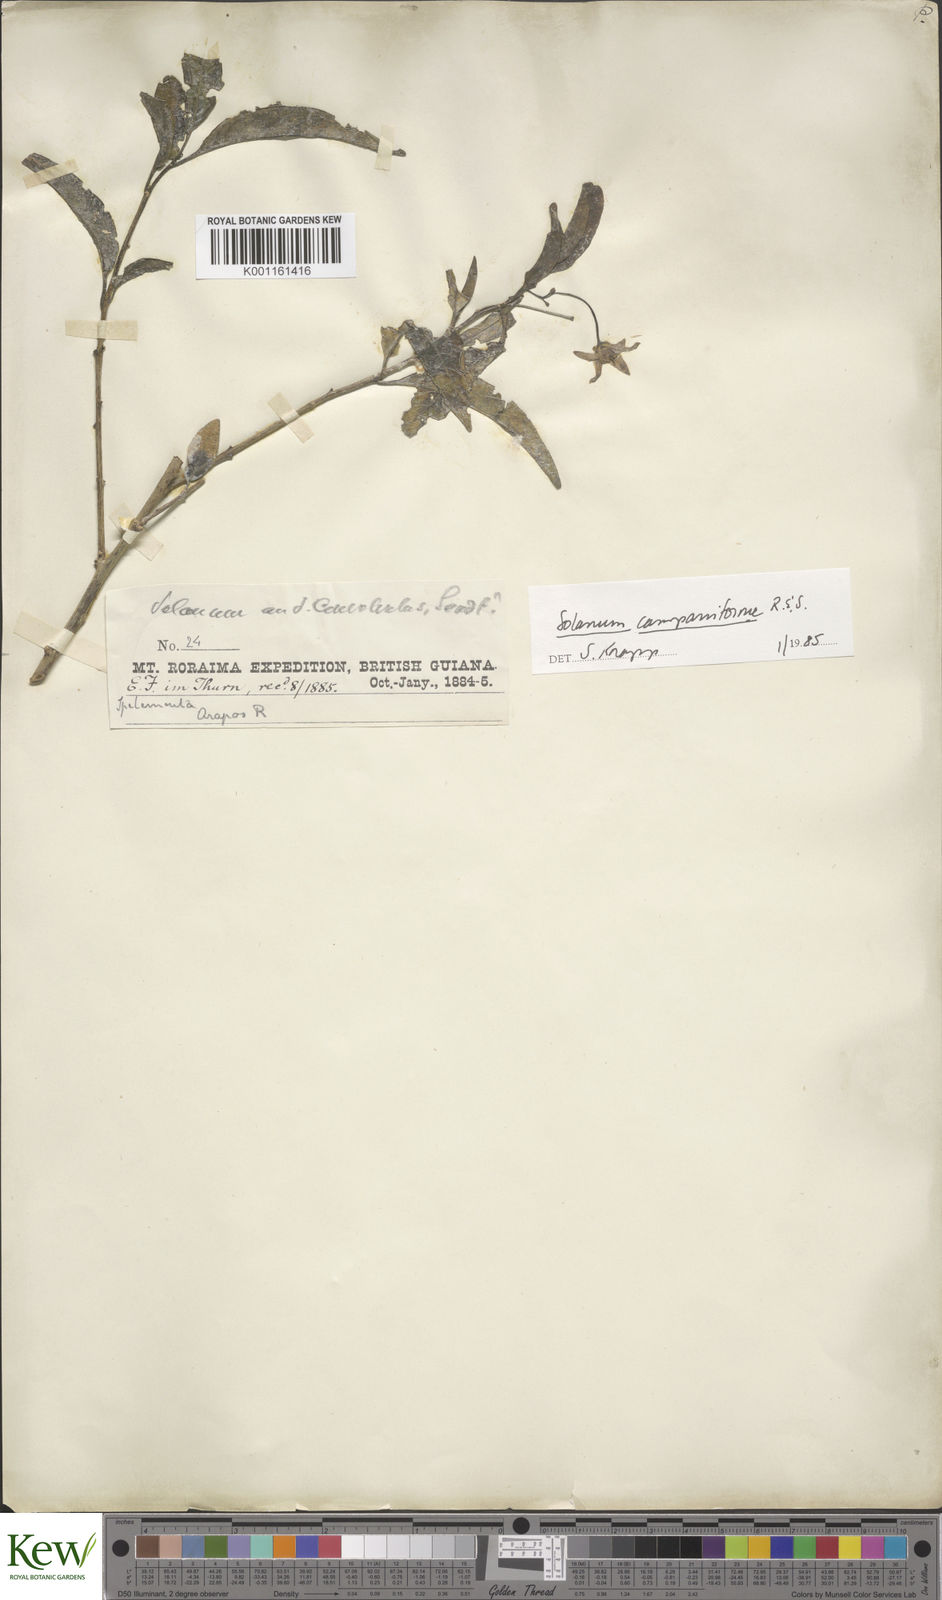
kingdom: Plantae
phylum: Tracheophyta
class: Magnoliopsida
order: Solanales
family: Solanaceae
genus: Solanum
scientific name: Solanum campaniforme
